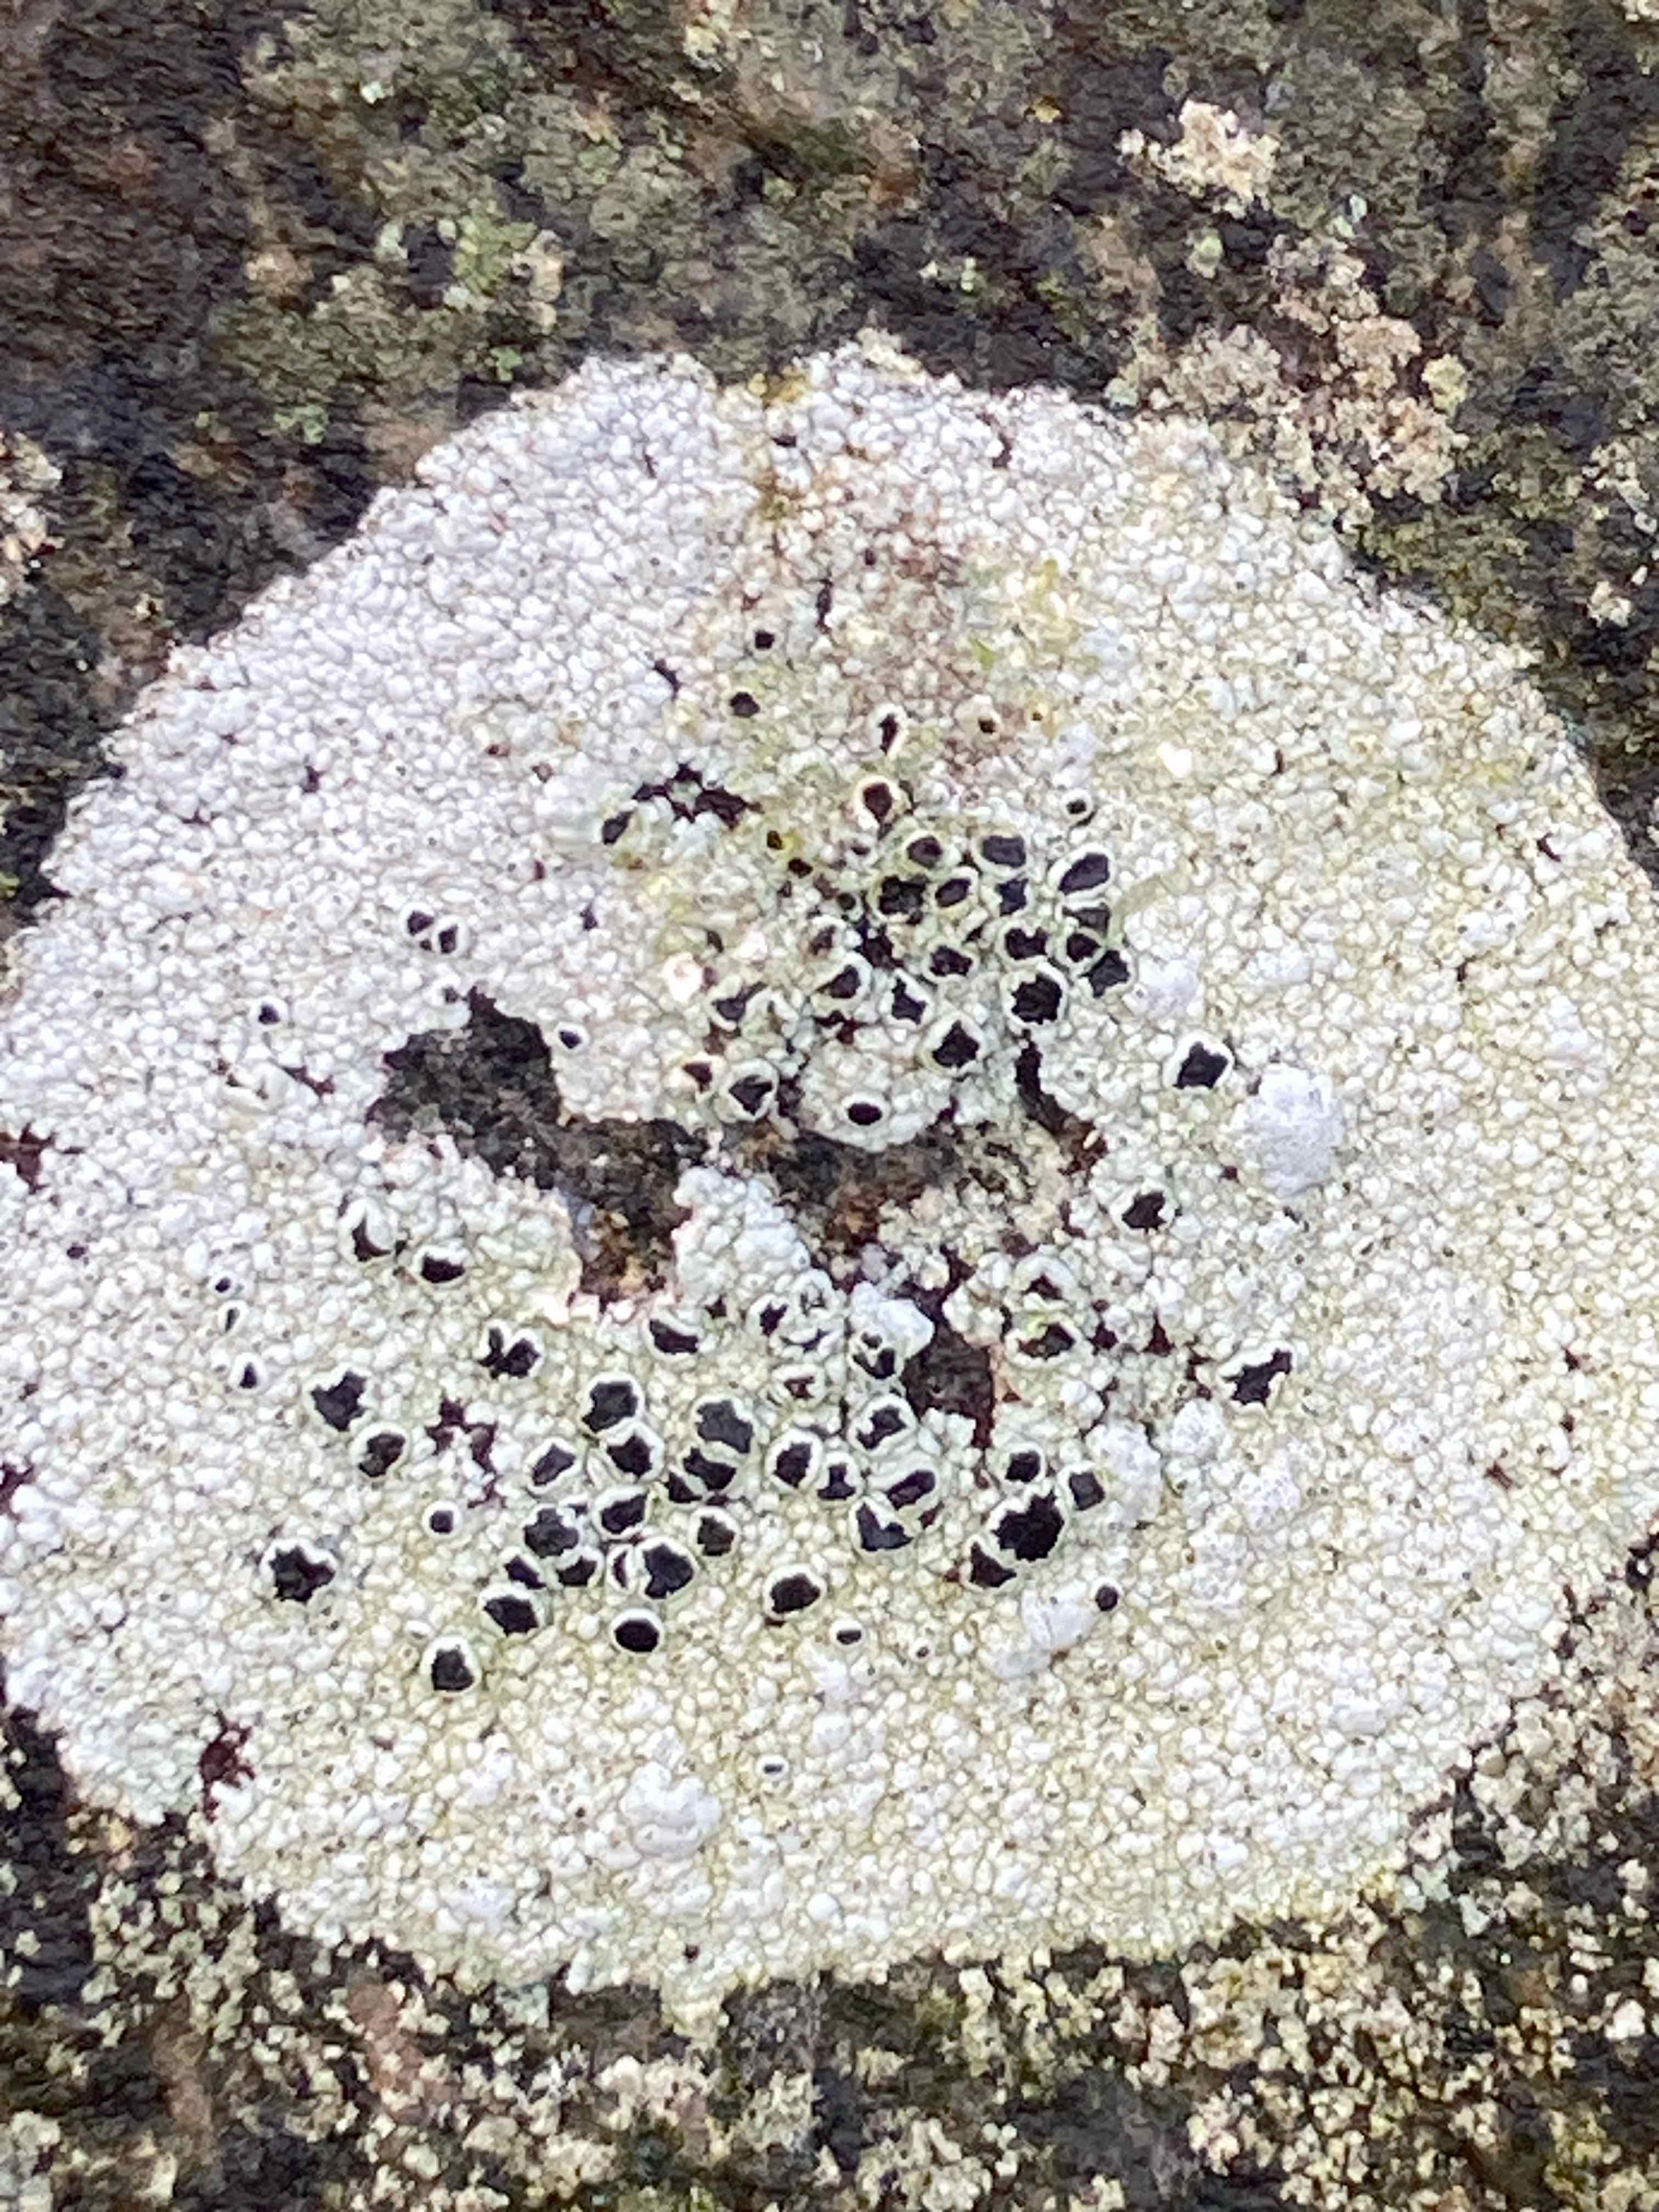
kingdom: Fungi
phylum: Ascomycota
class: Lecanoromycetes
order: Lecanorales
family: Tephromelataceae
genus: Tephromela
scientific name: Tephromela atra
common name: sortfrugtet kantskivelav
